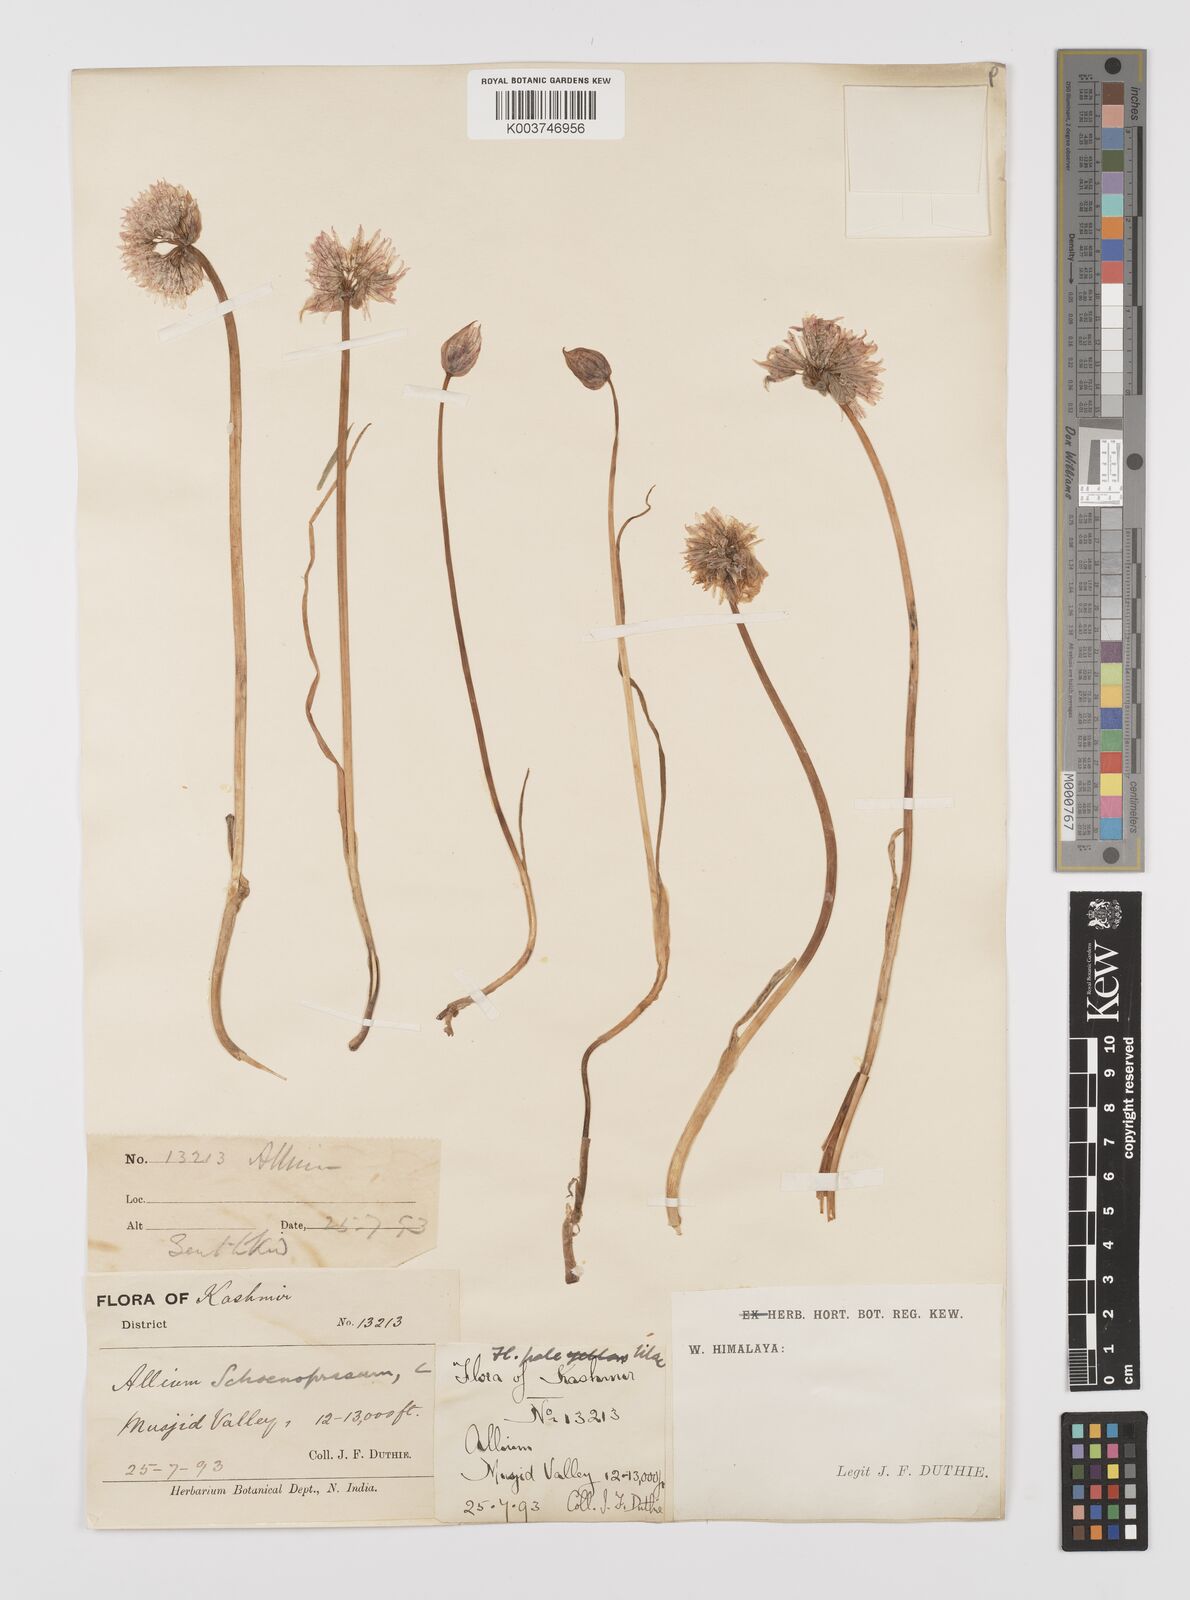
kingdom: Plantae
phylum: Tracheophyta
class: Liliopsida
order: Asparagales
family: Amaryllidaceae
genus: Allium
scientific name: Allium
